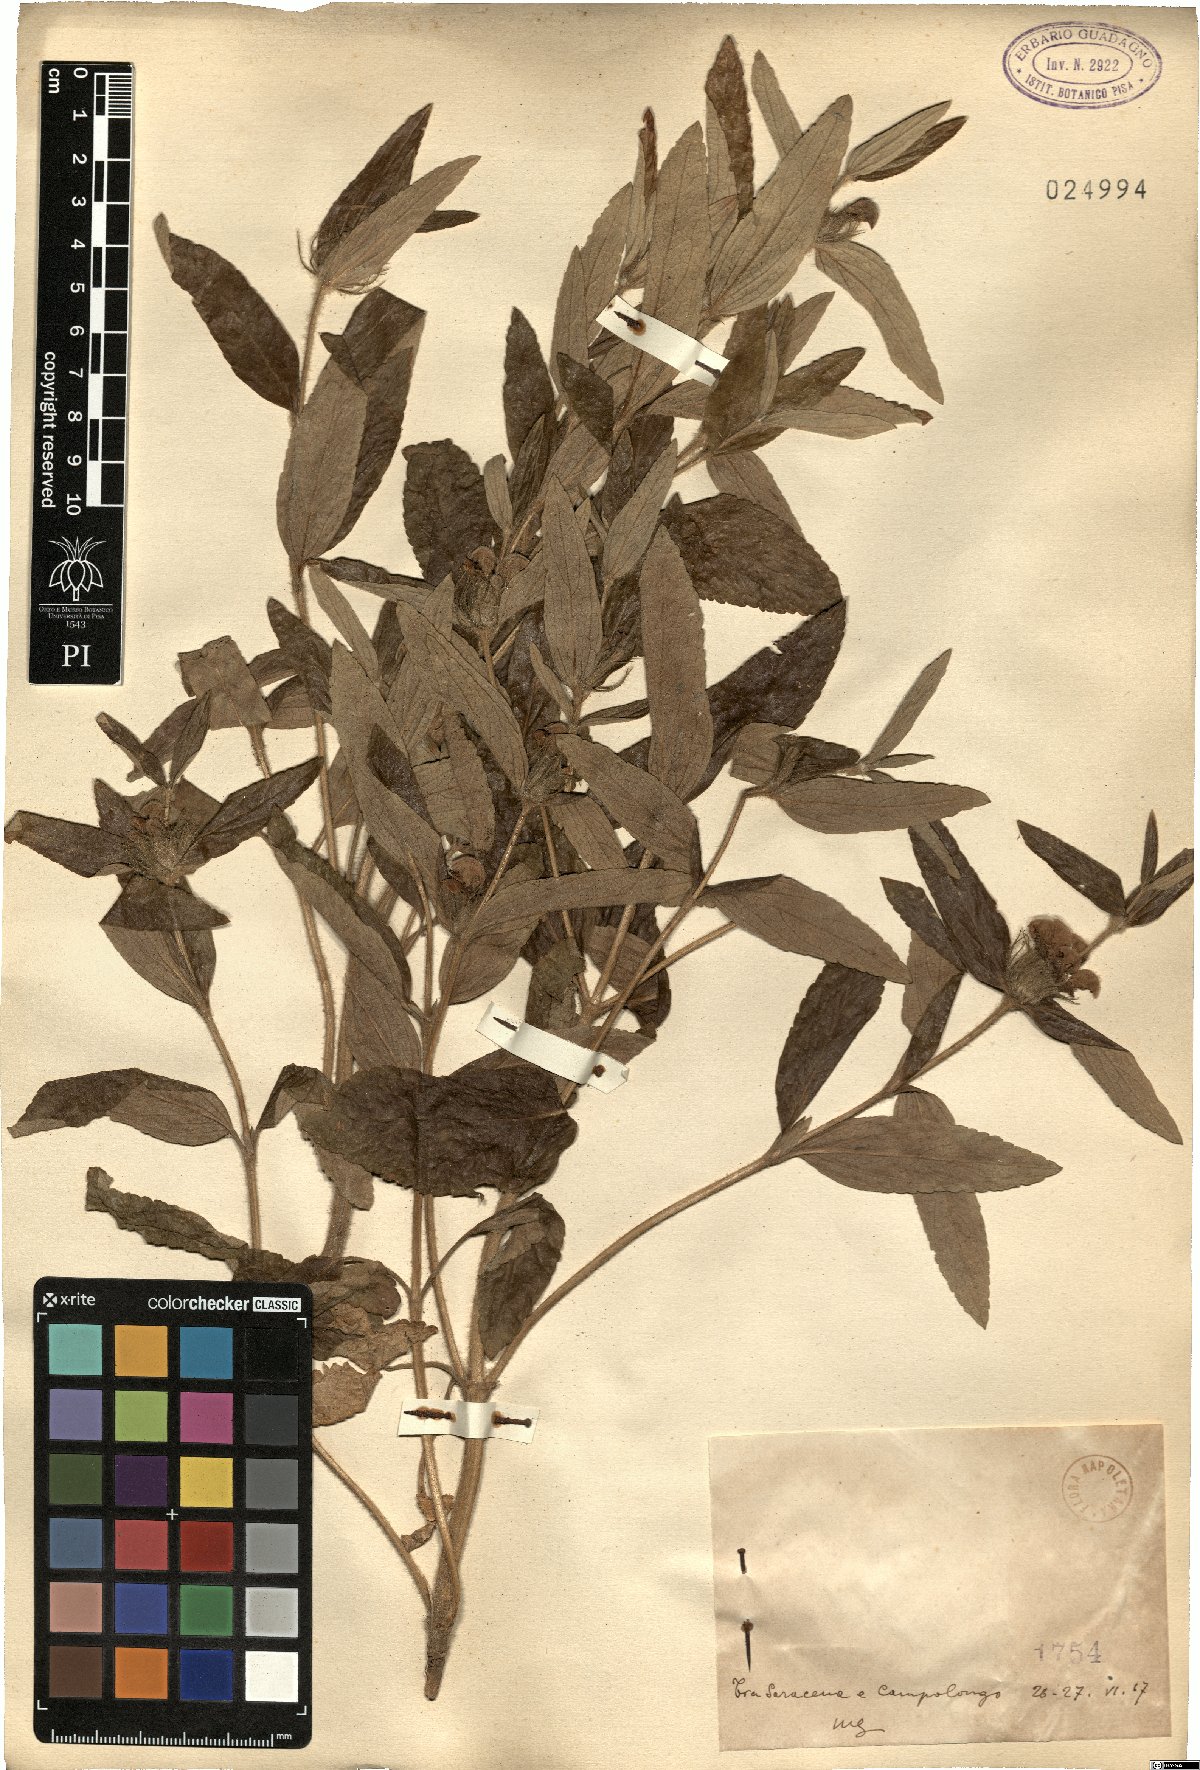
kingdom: Plantae
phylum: Tracheophyta
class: Magnoliopsida
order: Lamiales
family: Lamiaceae
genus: Phlomis
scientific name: Phlomis
